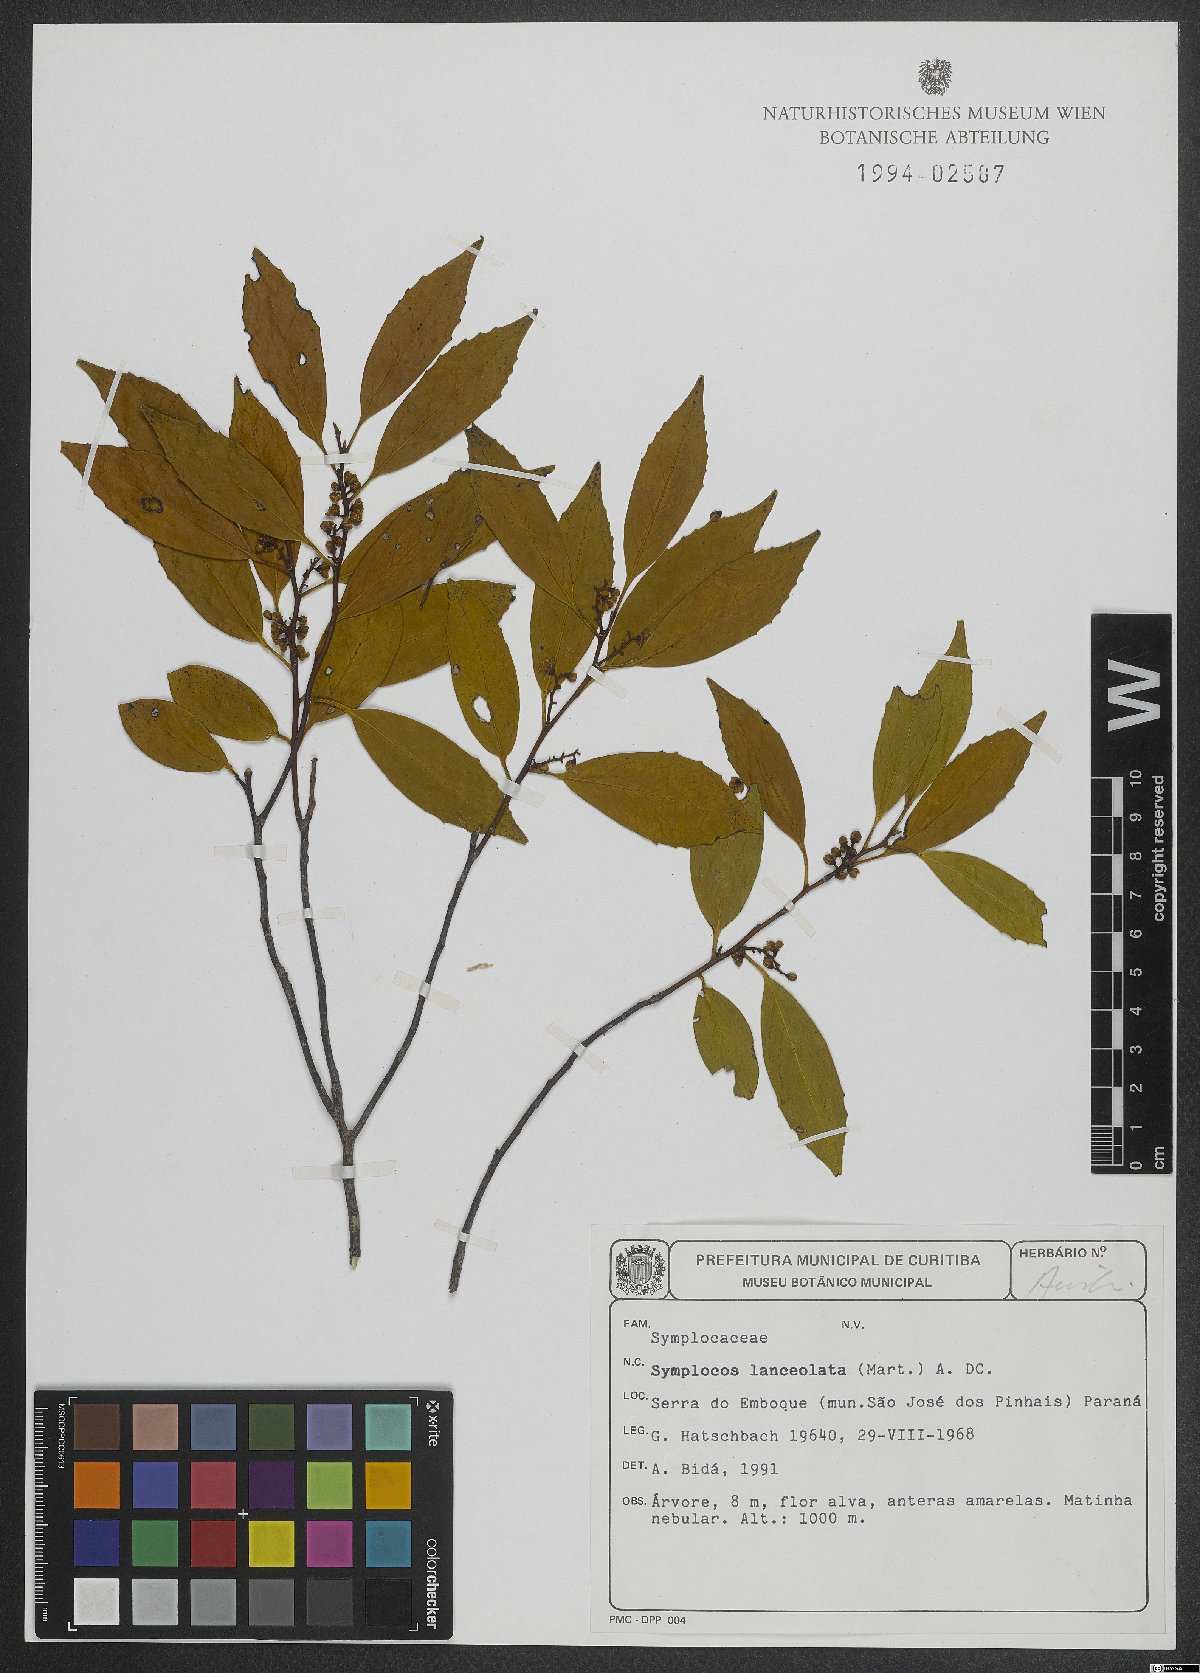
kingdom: Plantae
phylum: Tracheophyta
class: Magnoliopsida
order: Ericales
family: Symplocaceae
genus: Symplocos
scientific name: Symplocos oblongifolia
